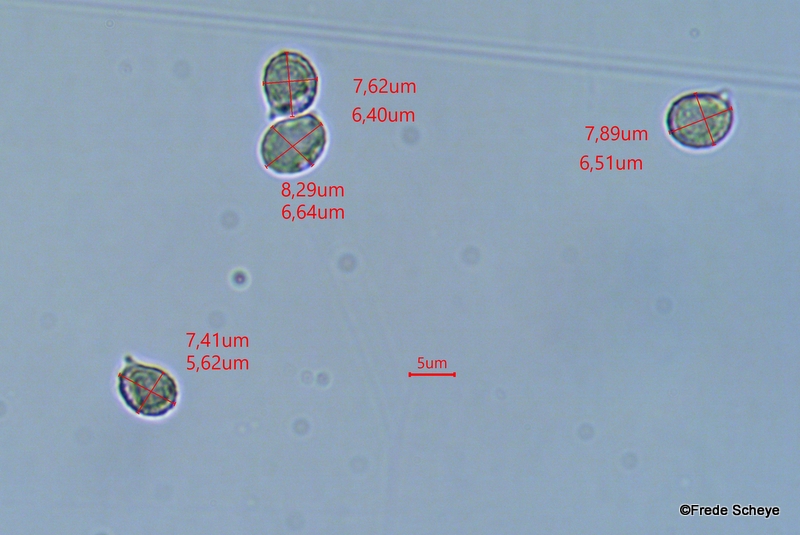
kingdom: Fungi
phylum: Basidiomycota
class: Agaricomycetes
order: Russulales
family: Russulaceae
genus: Russula
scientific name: Russula cyanoxantha
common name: broget skørhat
